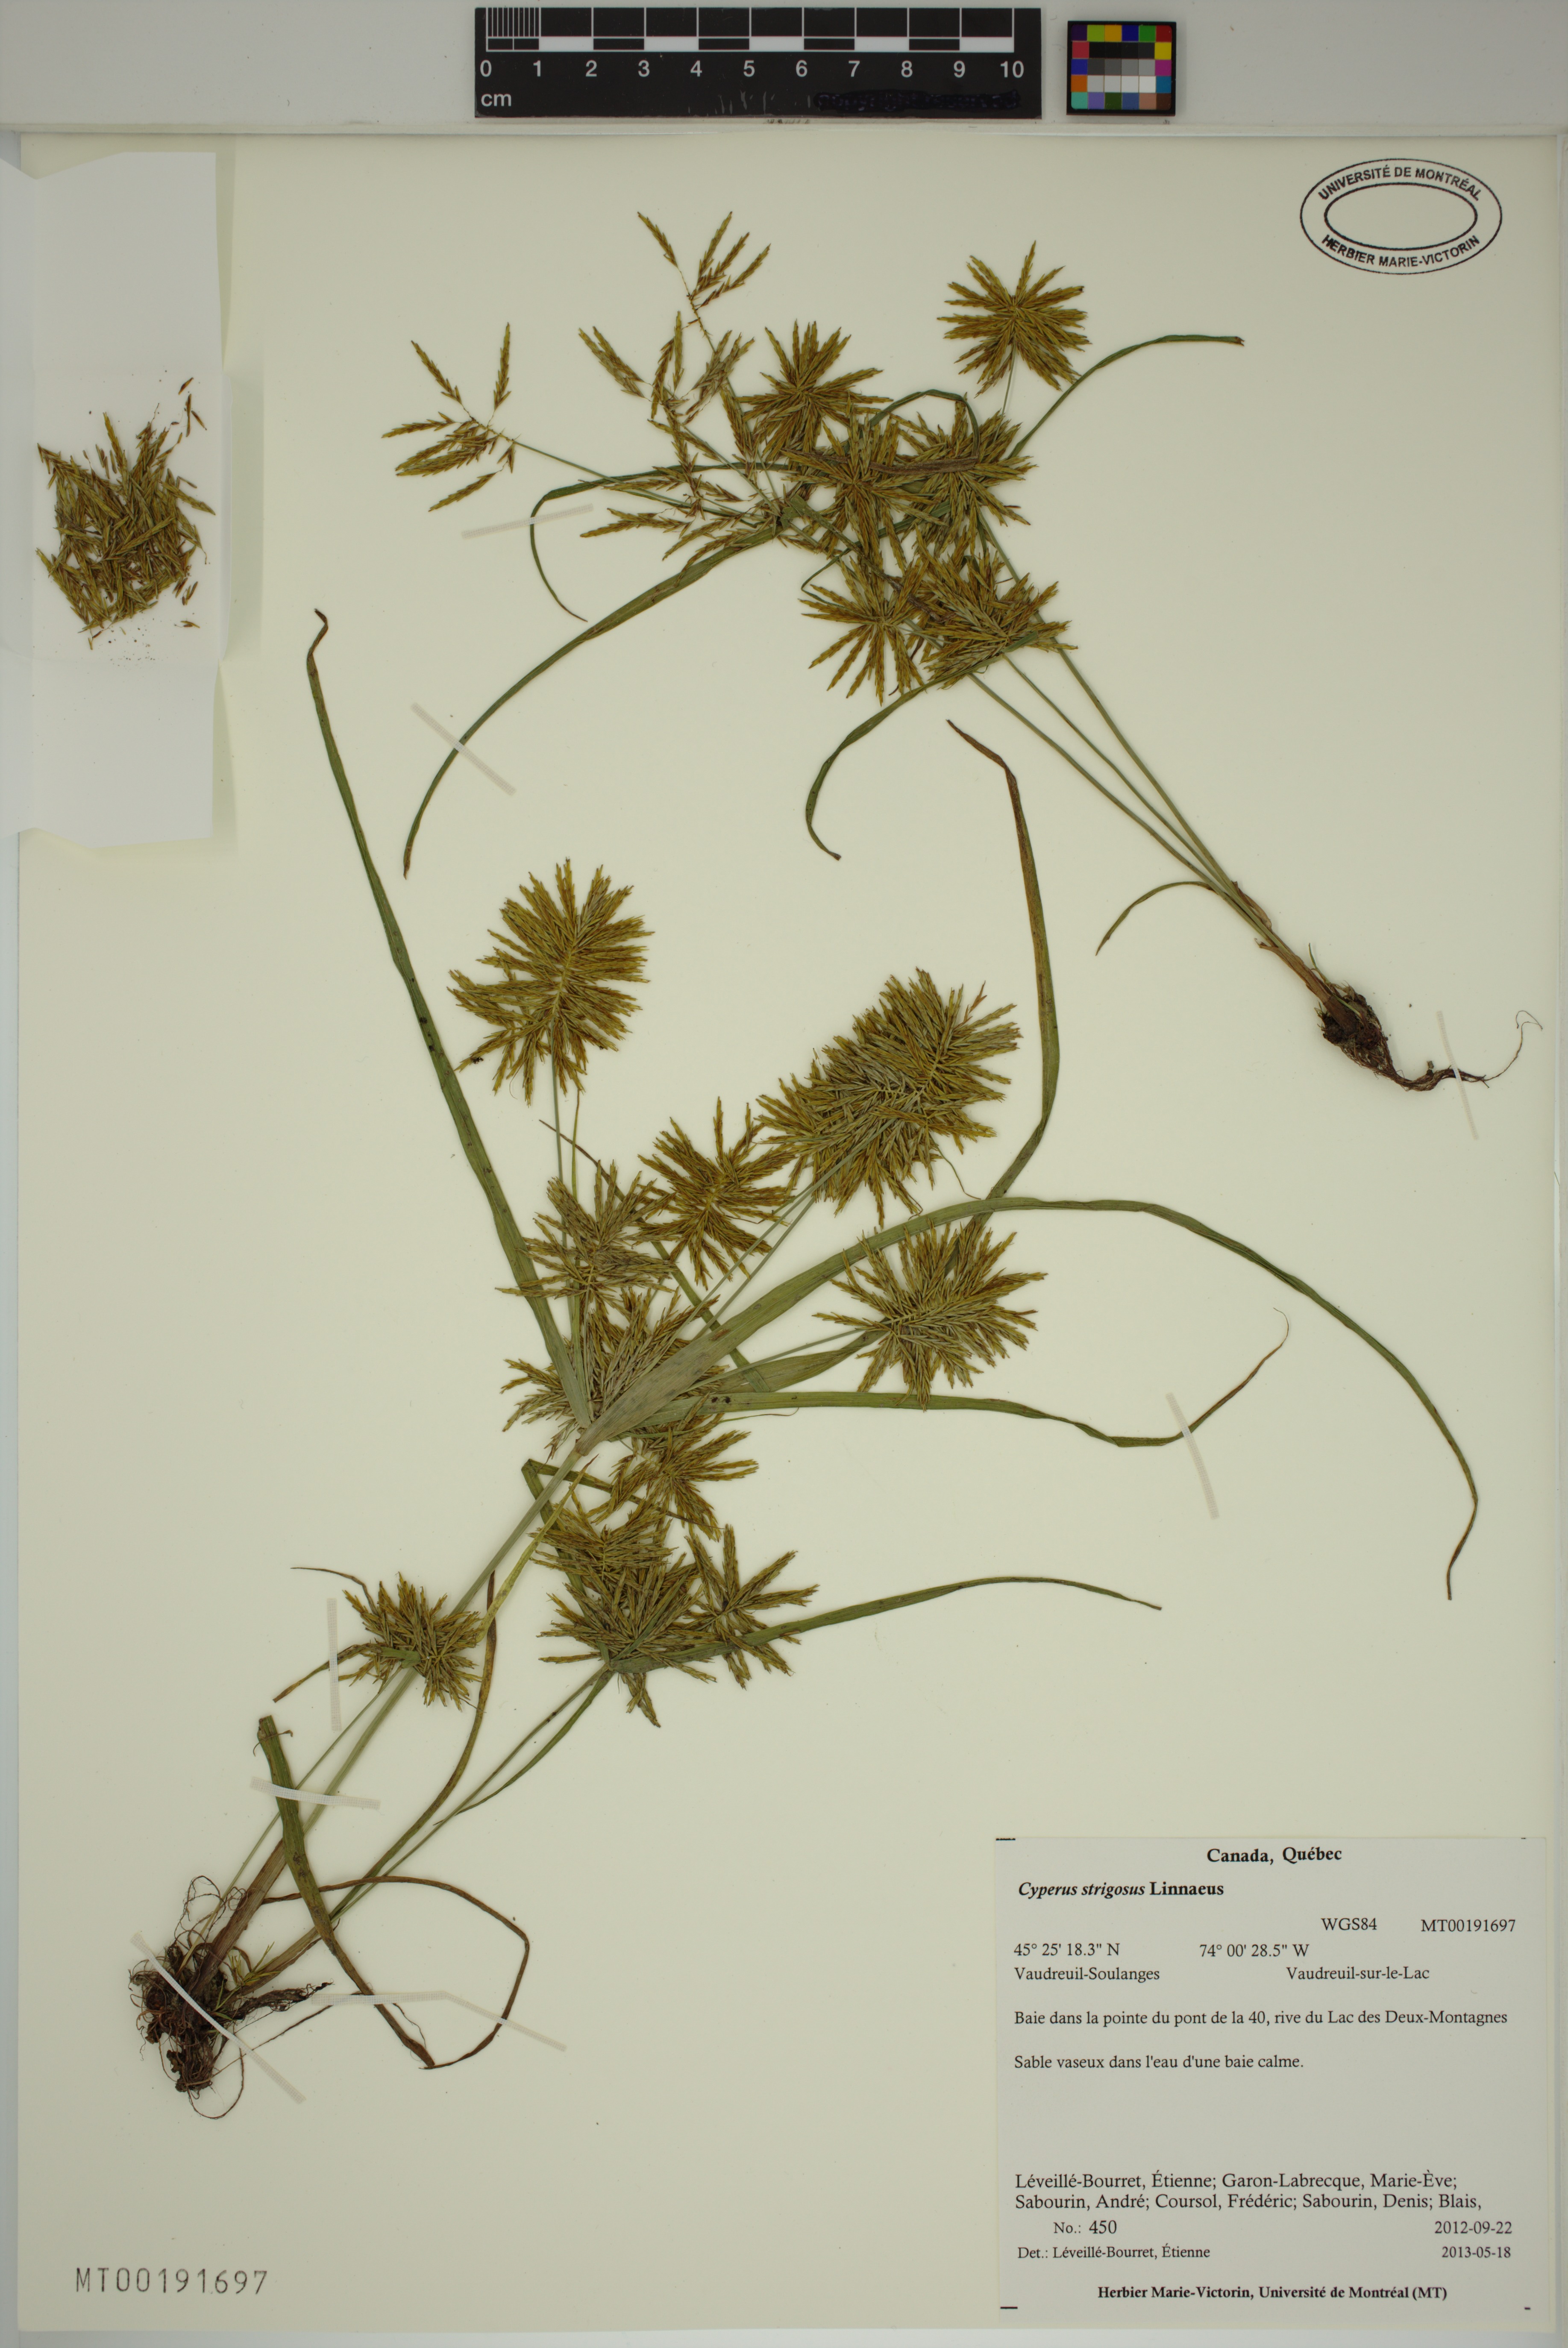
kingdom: Plantae
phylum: Tracheophyta
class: Liliopsida
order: Poales
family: Cyperaceae
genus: Cyperus
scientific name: Cyperus strigosus
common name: False nutsedge
